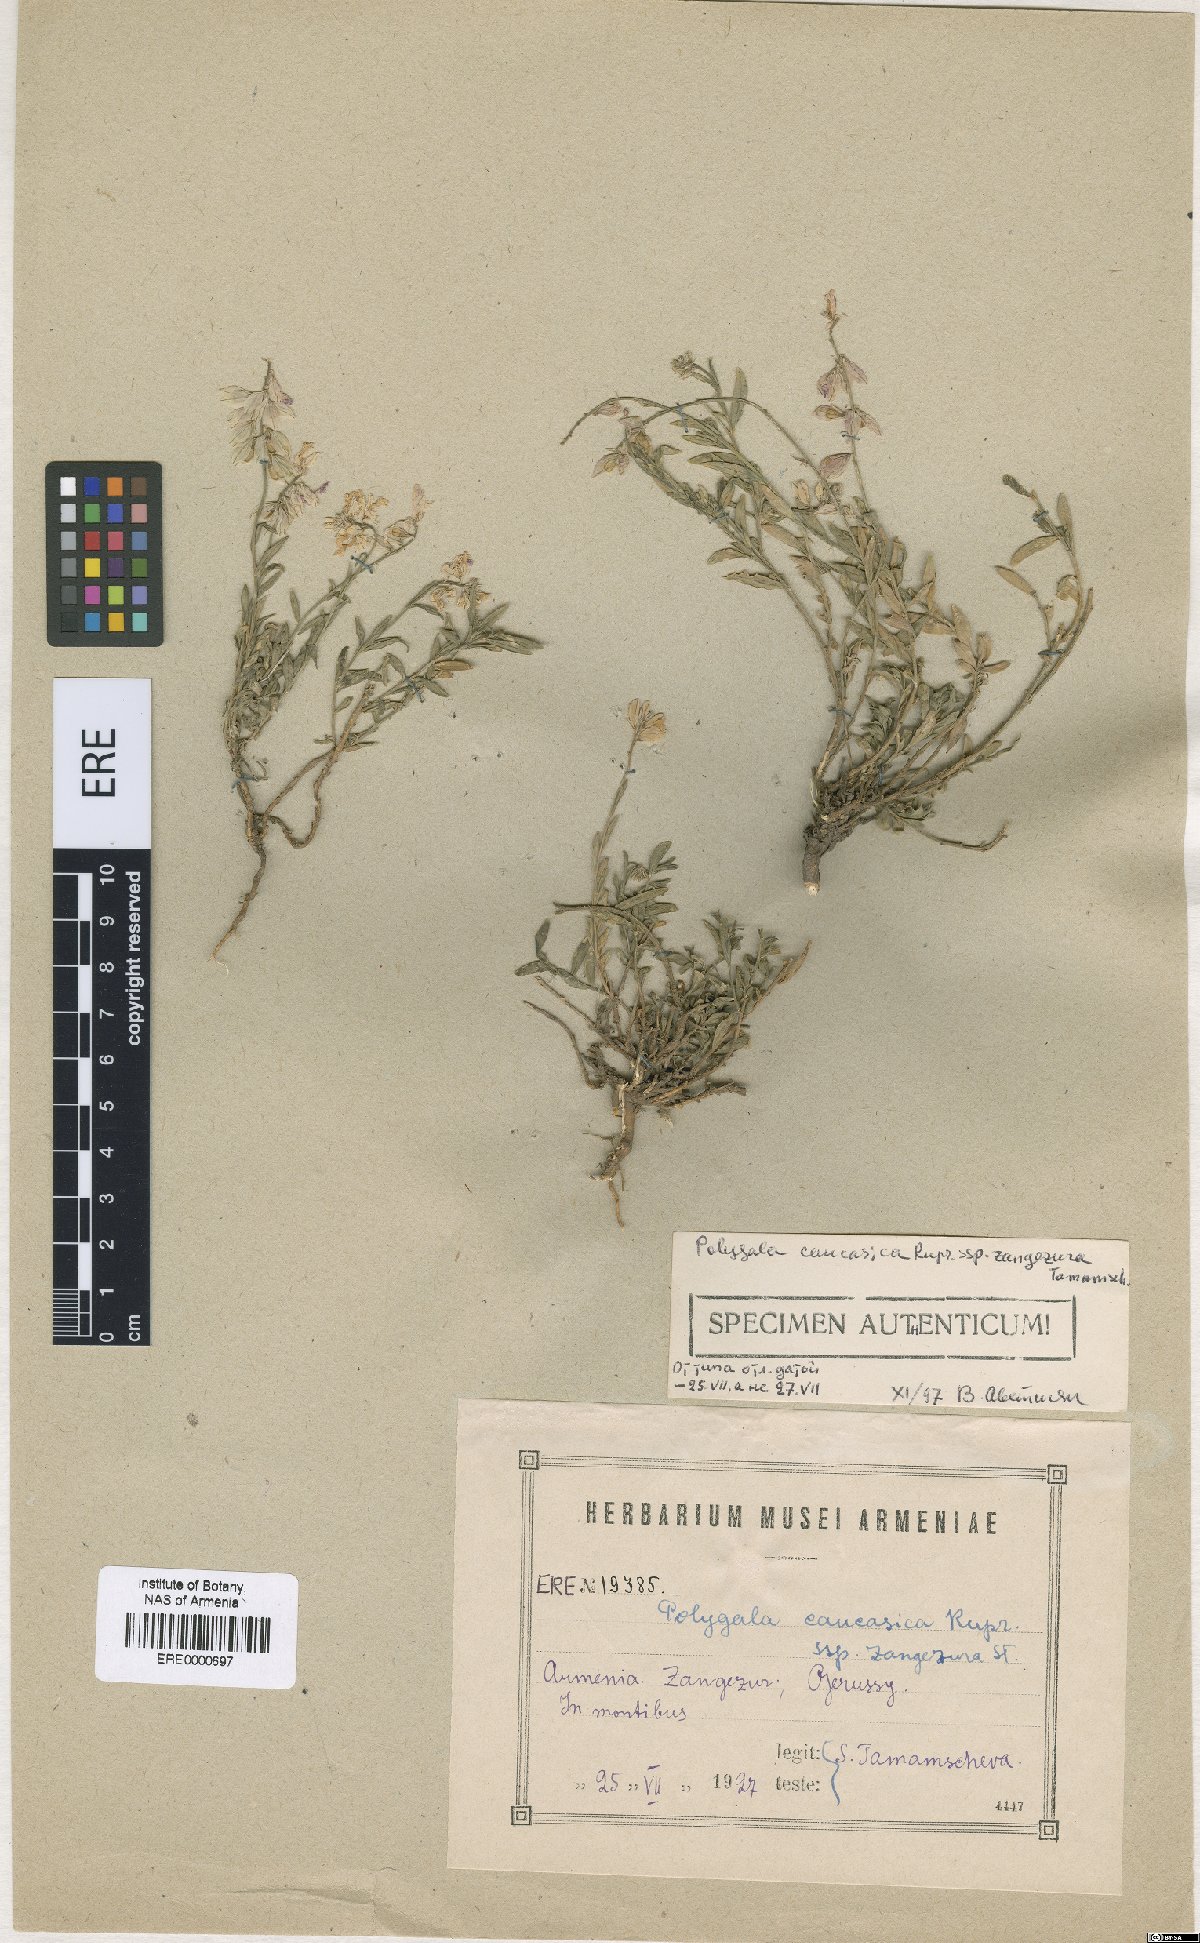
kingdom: Plantae
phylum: Tracheophyta
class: Magnoliopsida
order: Fabales
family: Polygalaceae
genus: Polygala
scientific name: Polygala caucasica
